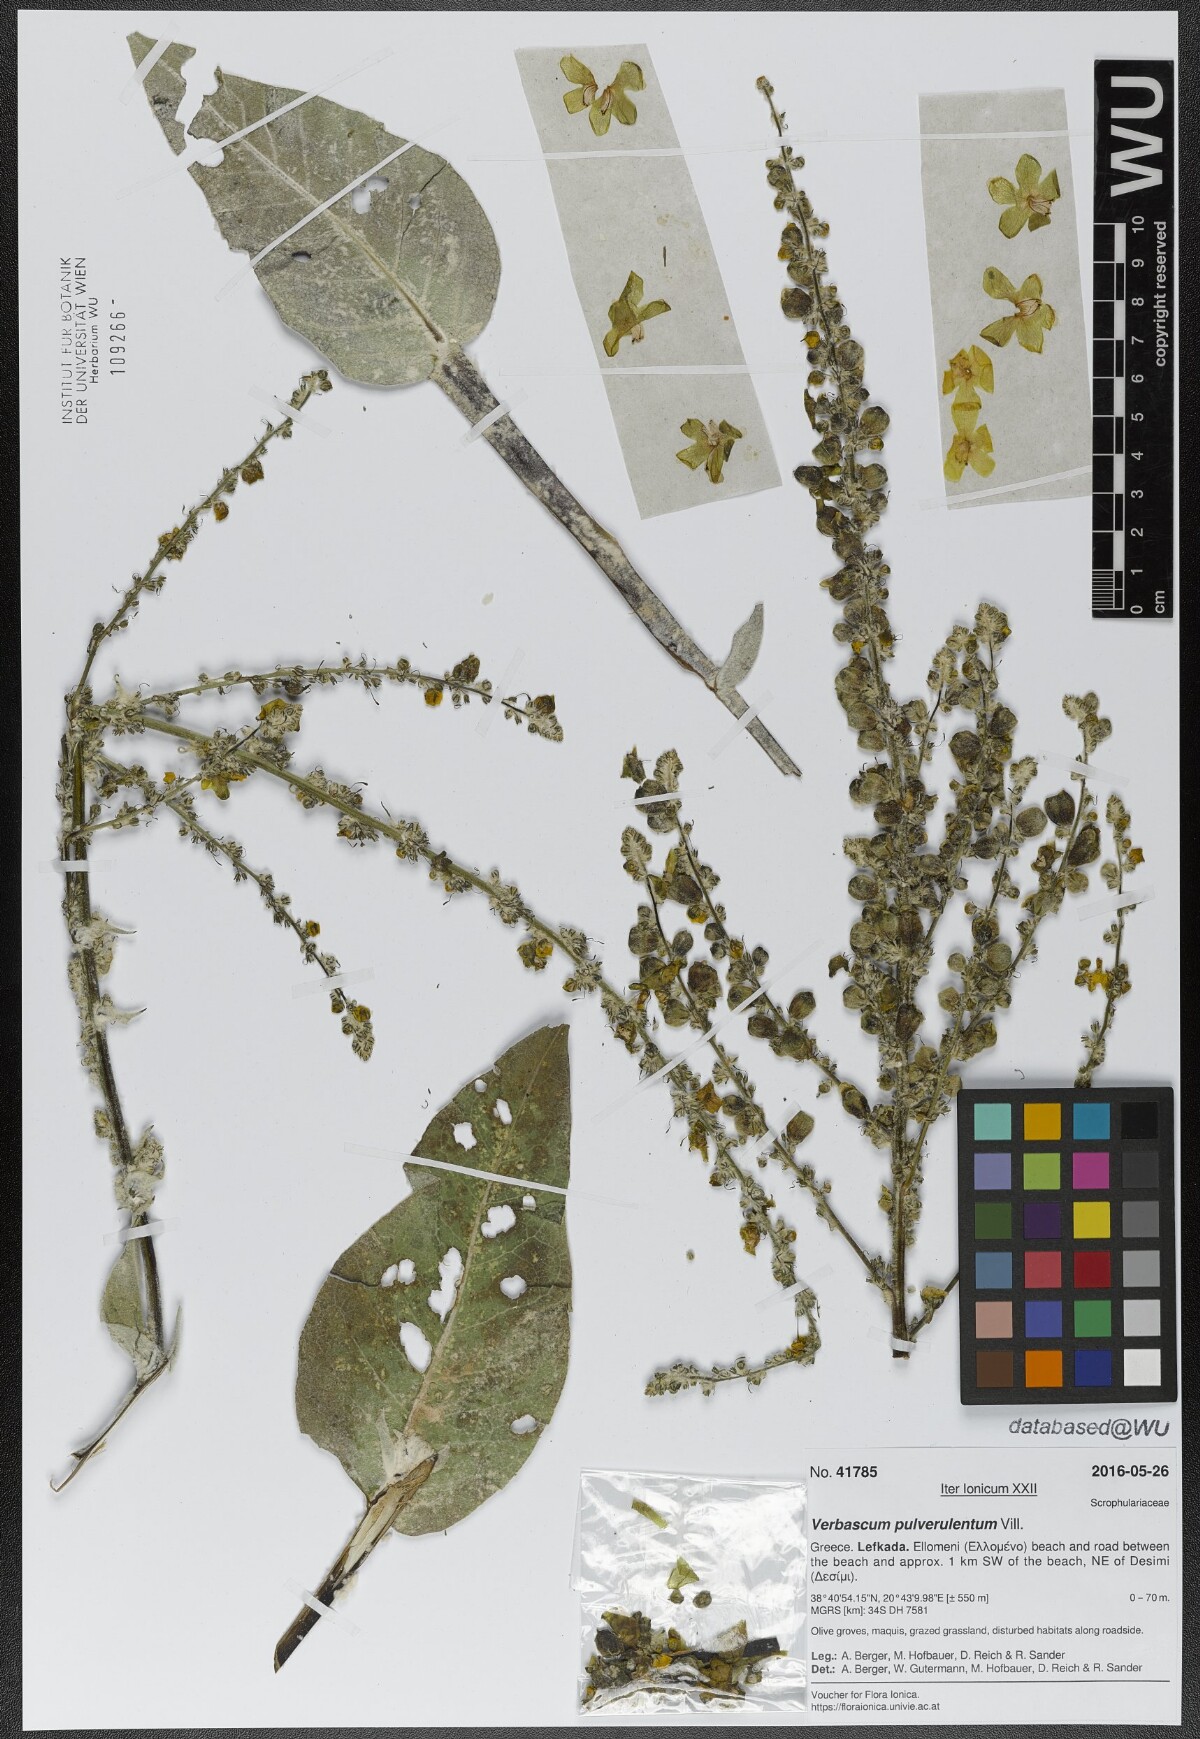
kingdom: Plantae
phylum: Tracheophyta
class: Magnoliopsida
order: Lamiales
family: Scrophulariaceae
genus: Verbascum
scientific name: Verbascum pulverulentum
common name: Broad-leaf mullein
